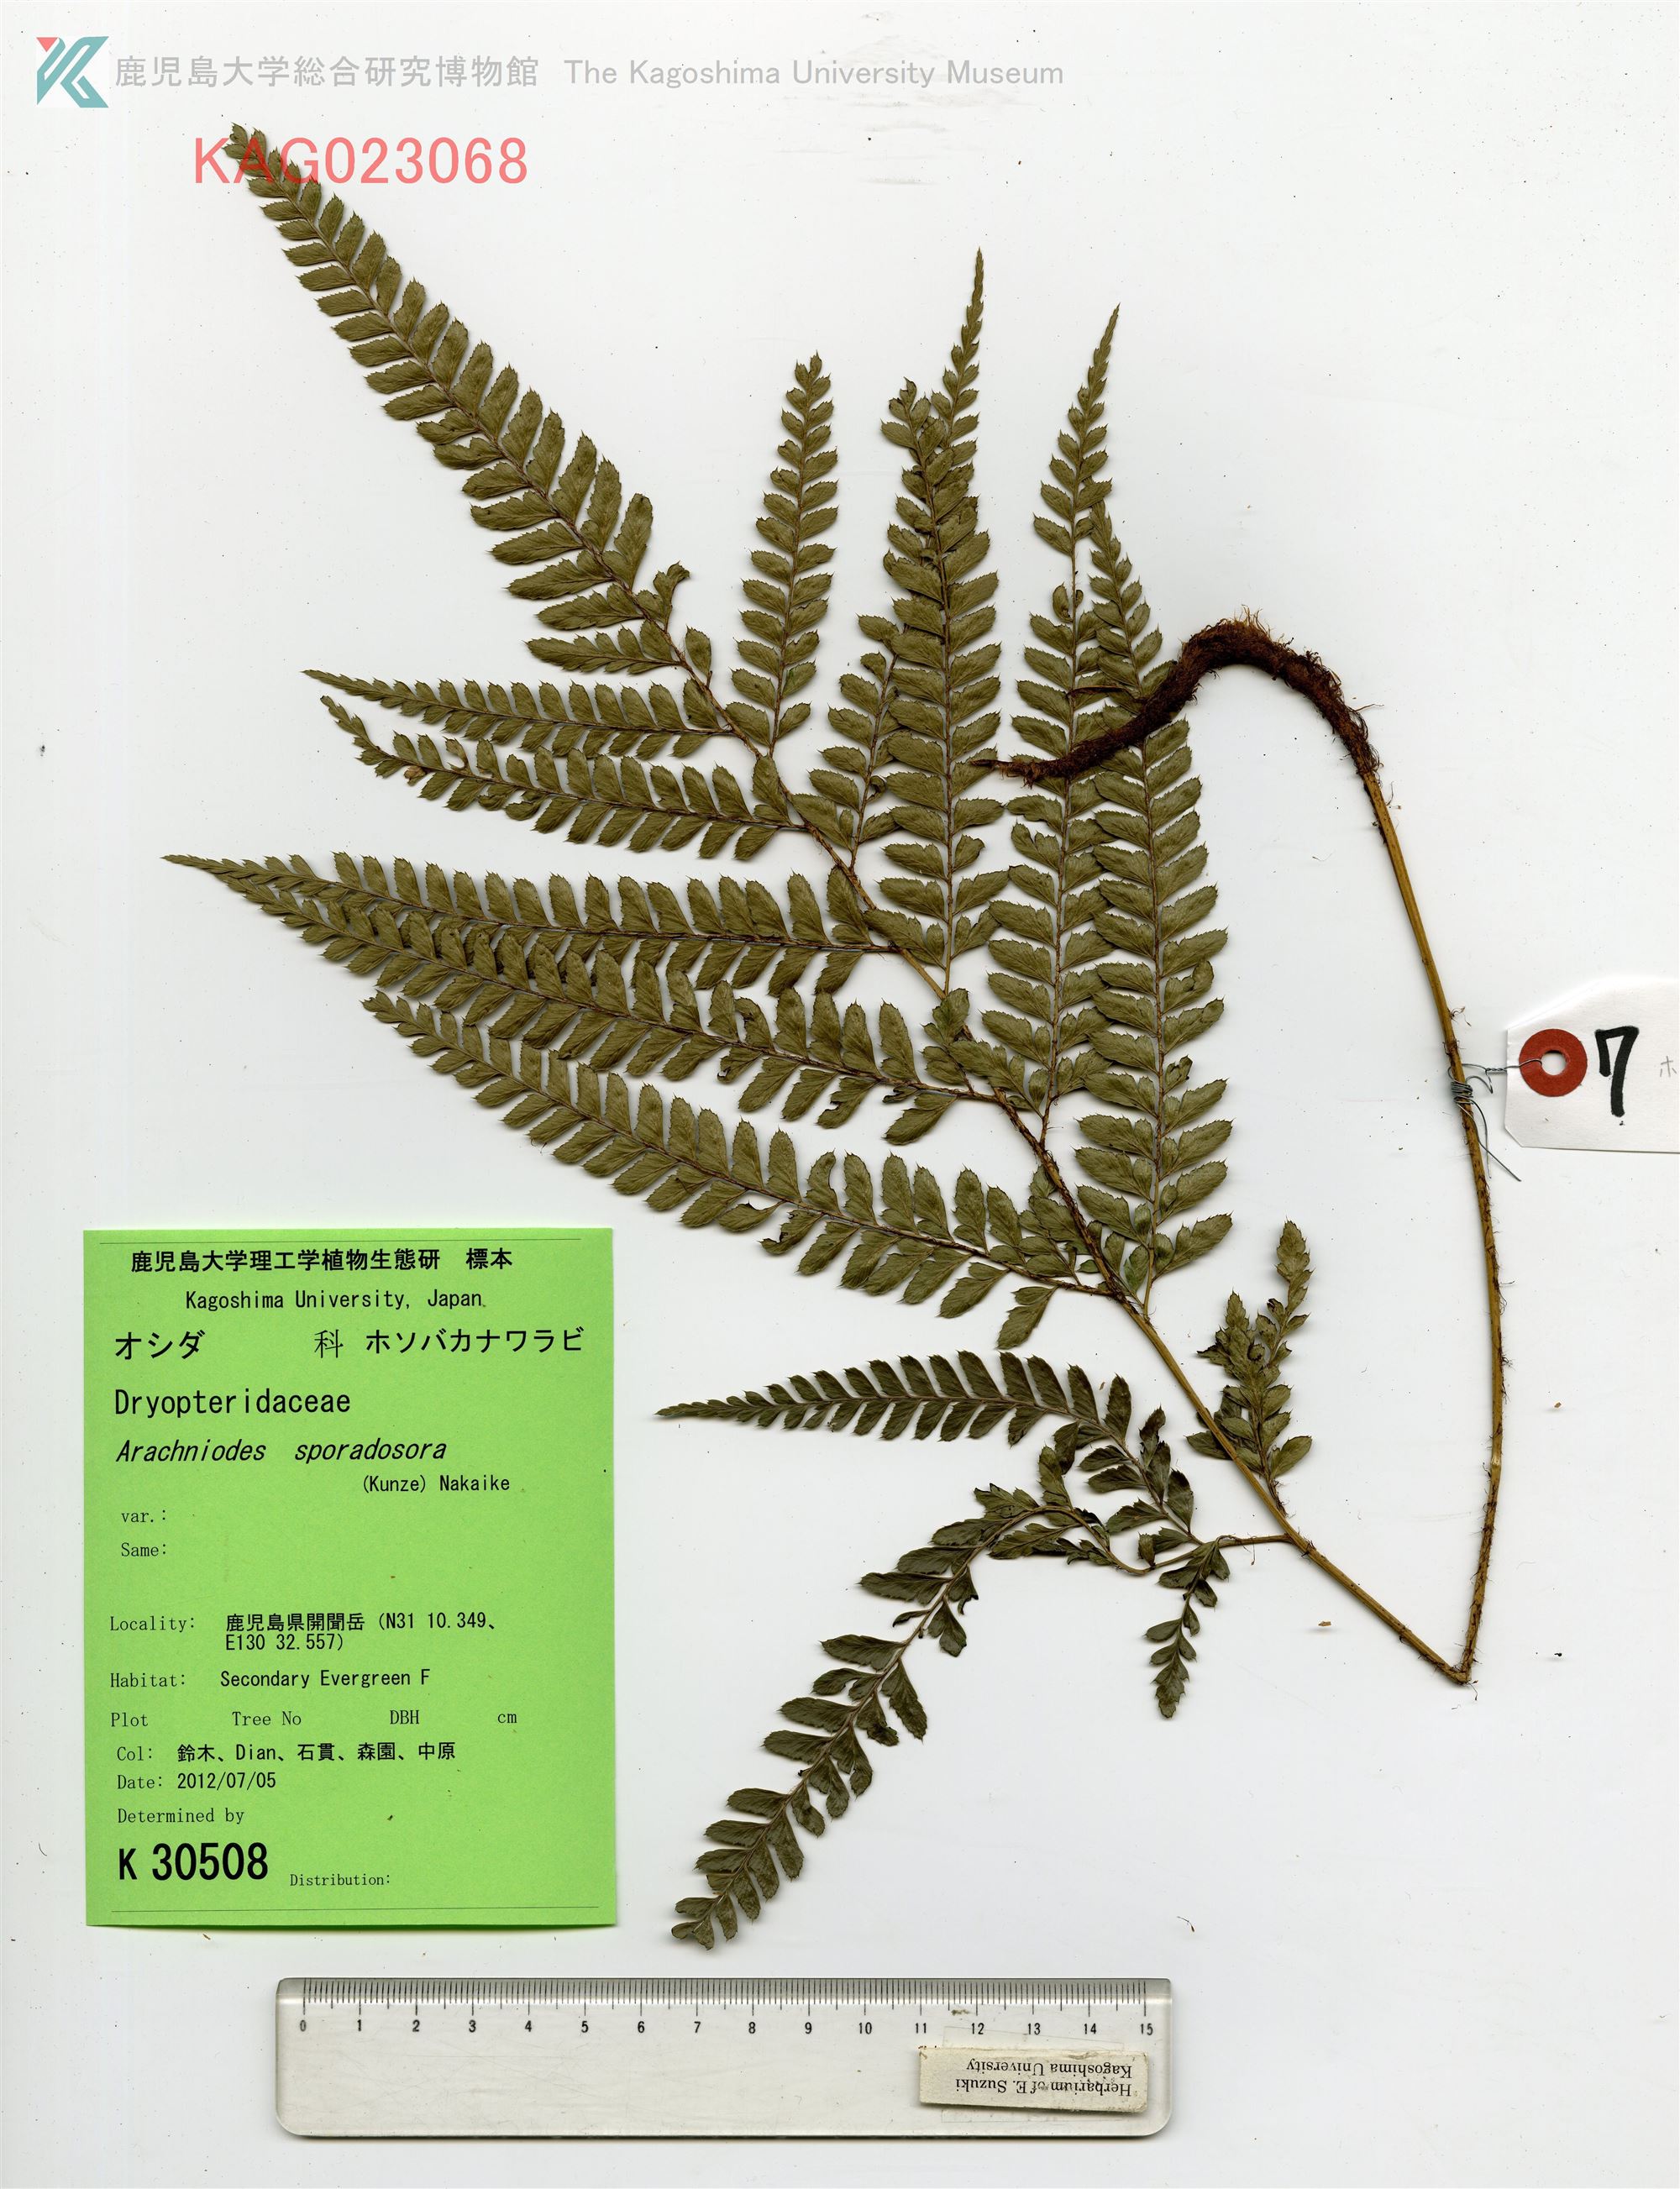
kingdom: Plantae
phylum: Tracheophyta
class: Polypodiopsida
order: Polypodiales
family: Dryopteridaceae
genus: Arachniodes
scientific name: Arachniodes carvifolia
